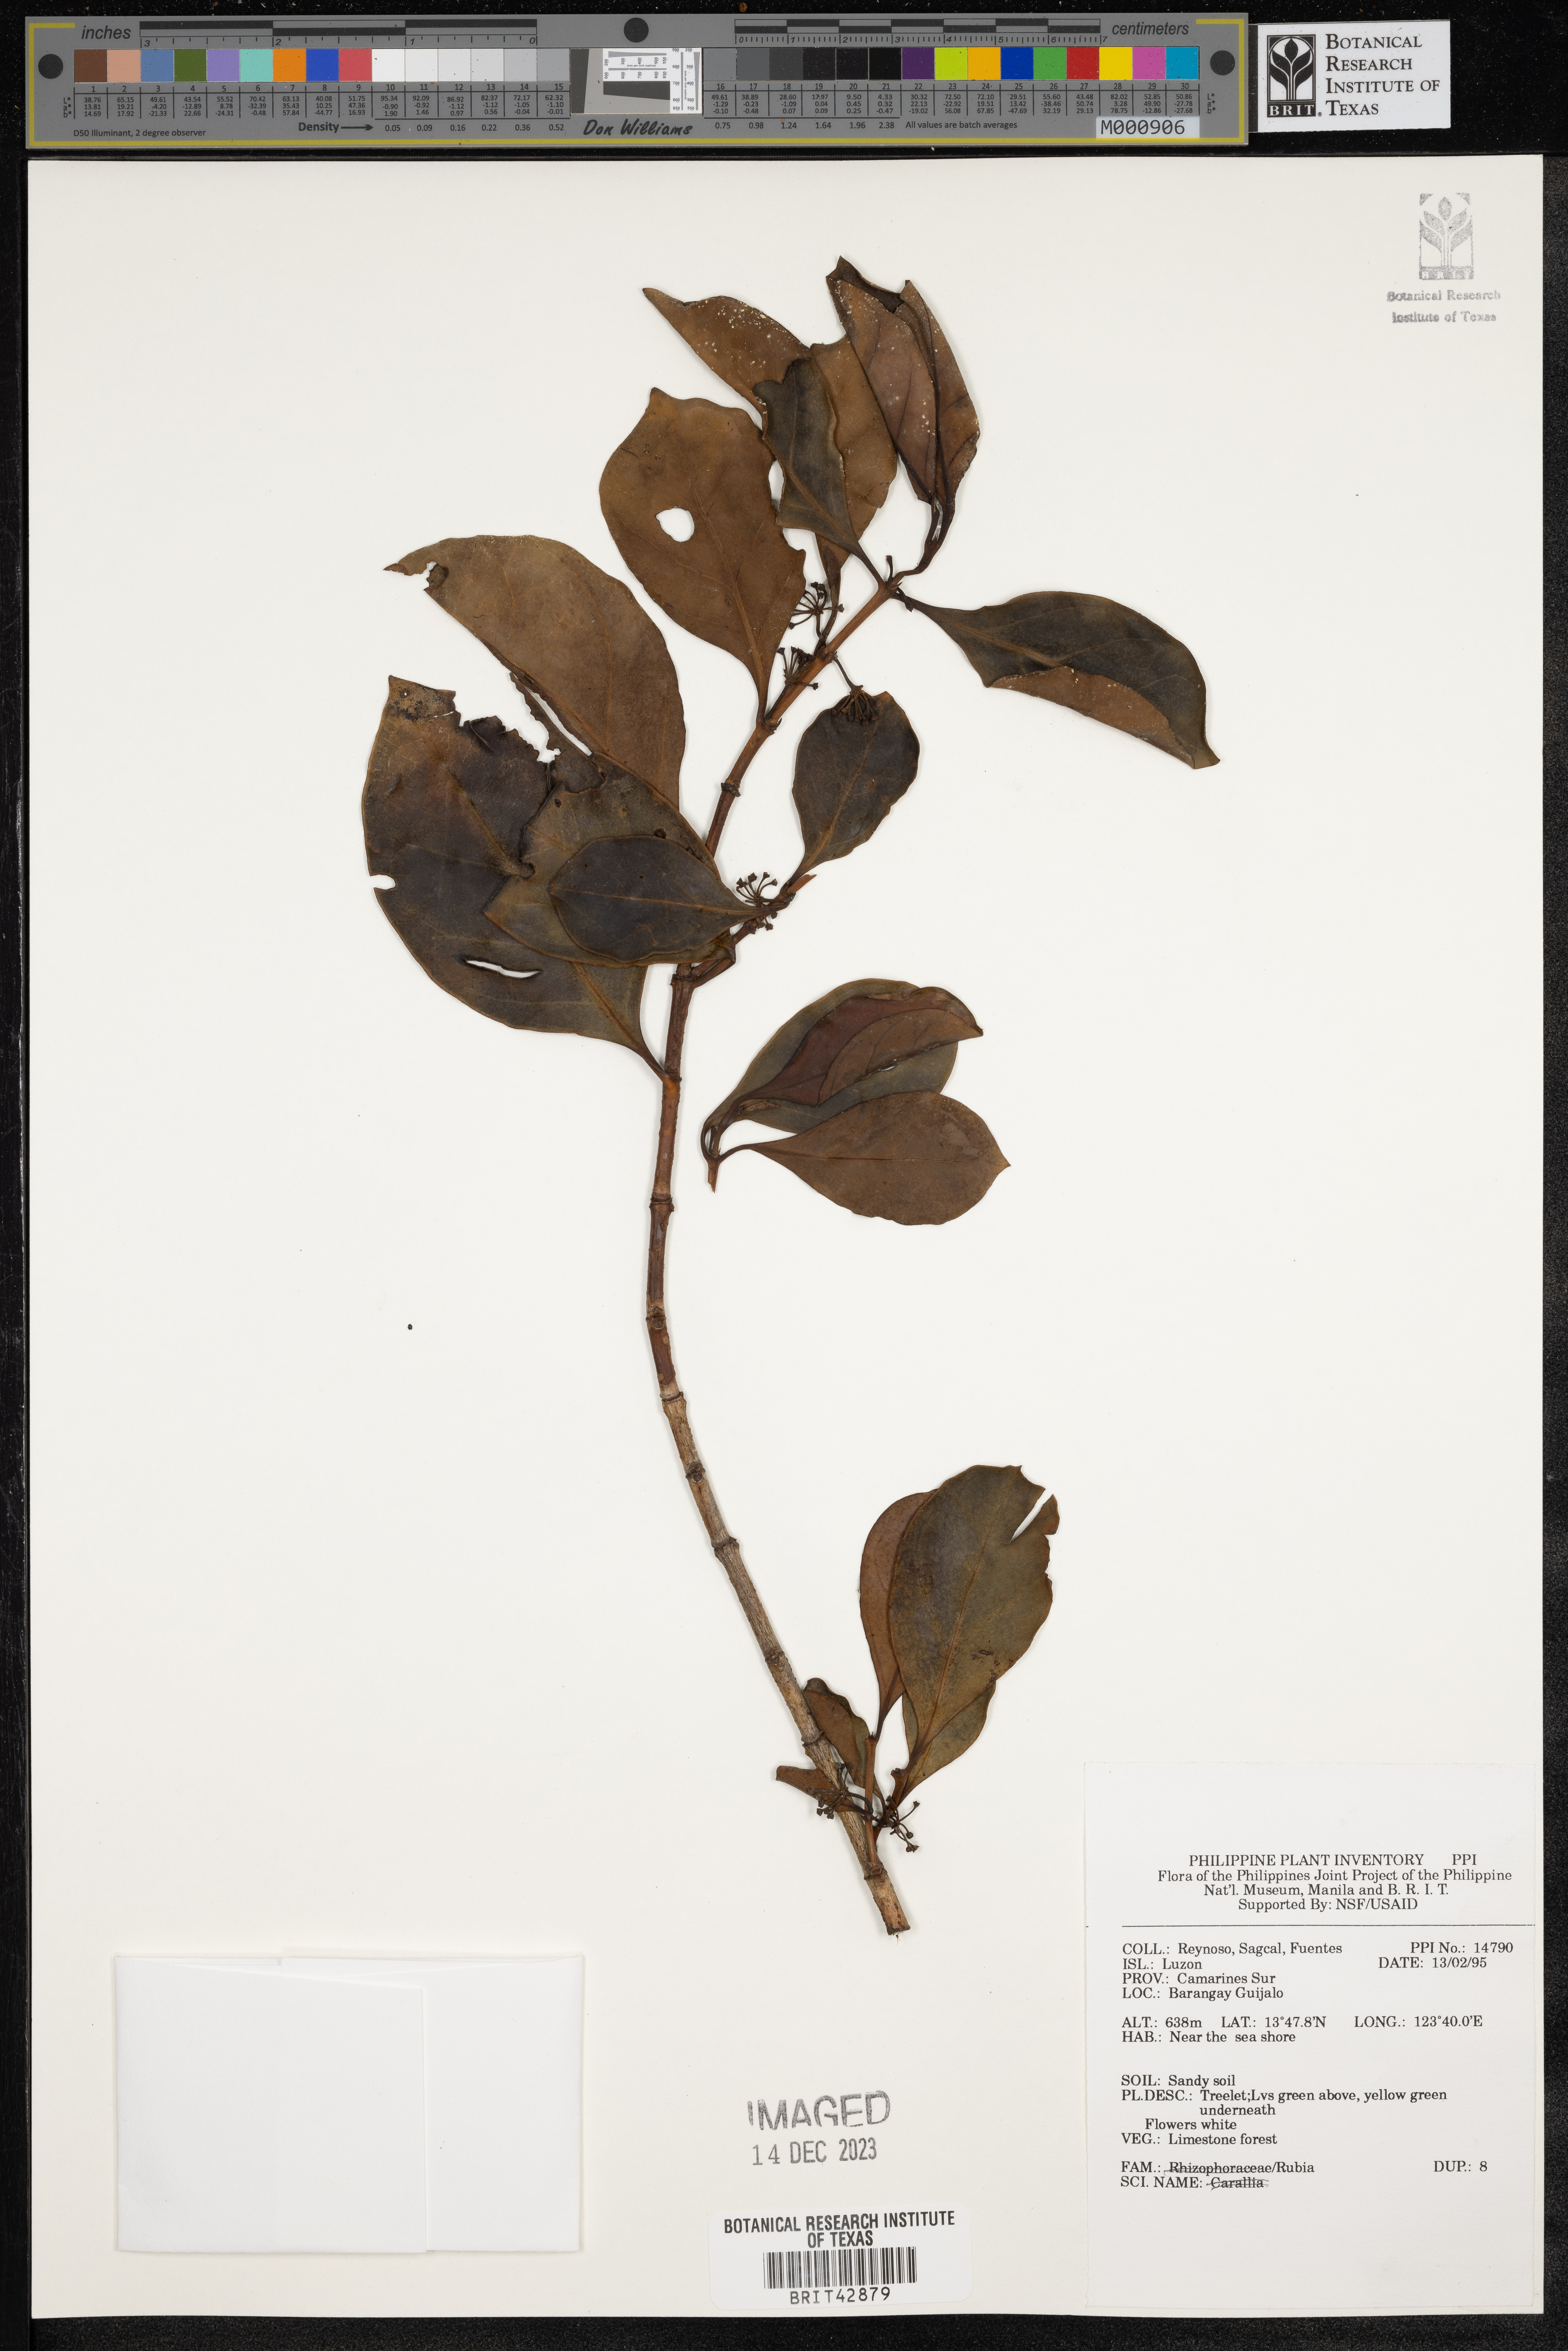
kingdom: Plantae
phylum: Tracheophyta
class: Magnoliopsida
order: Gentianales
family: Rubiaceae
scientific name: Rubiaceae
